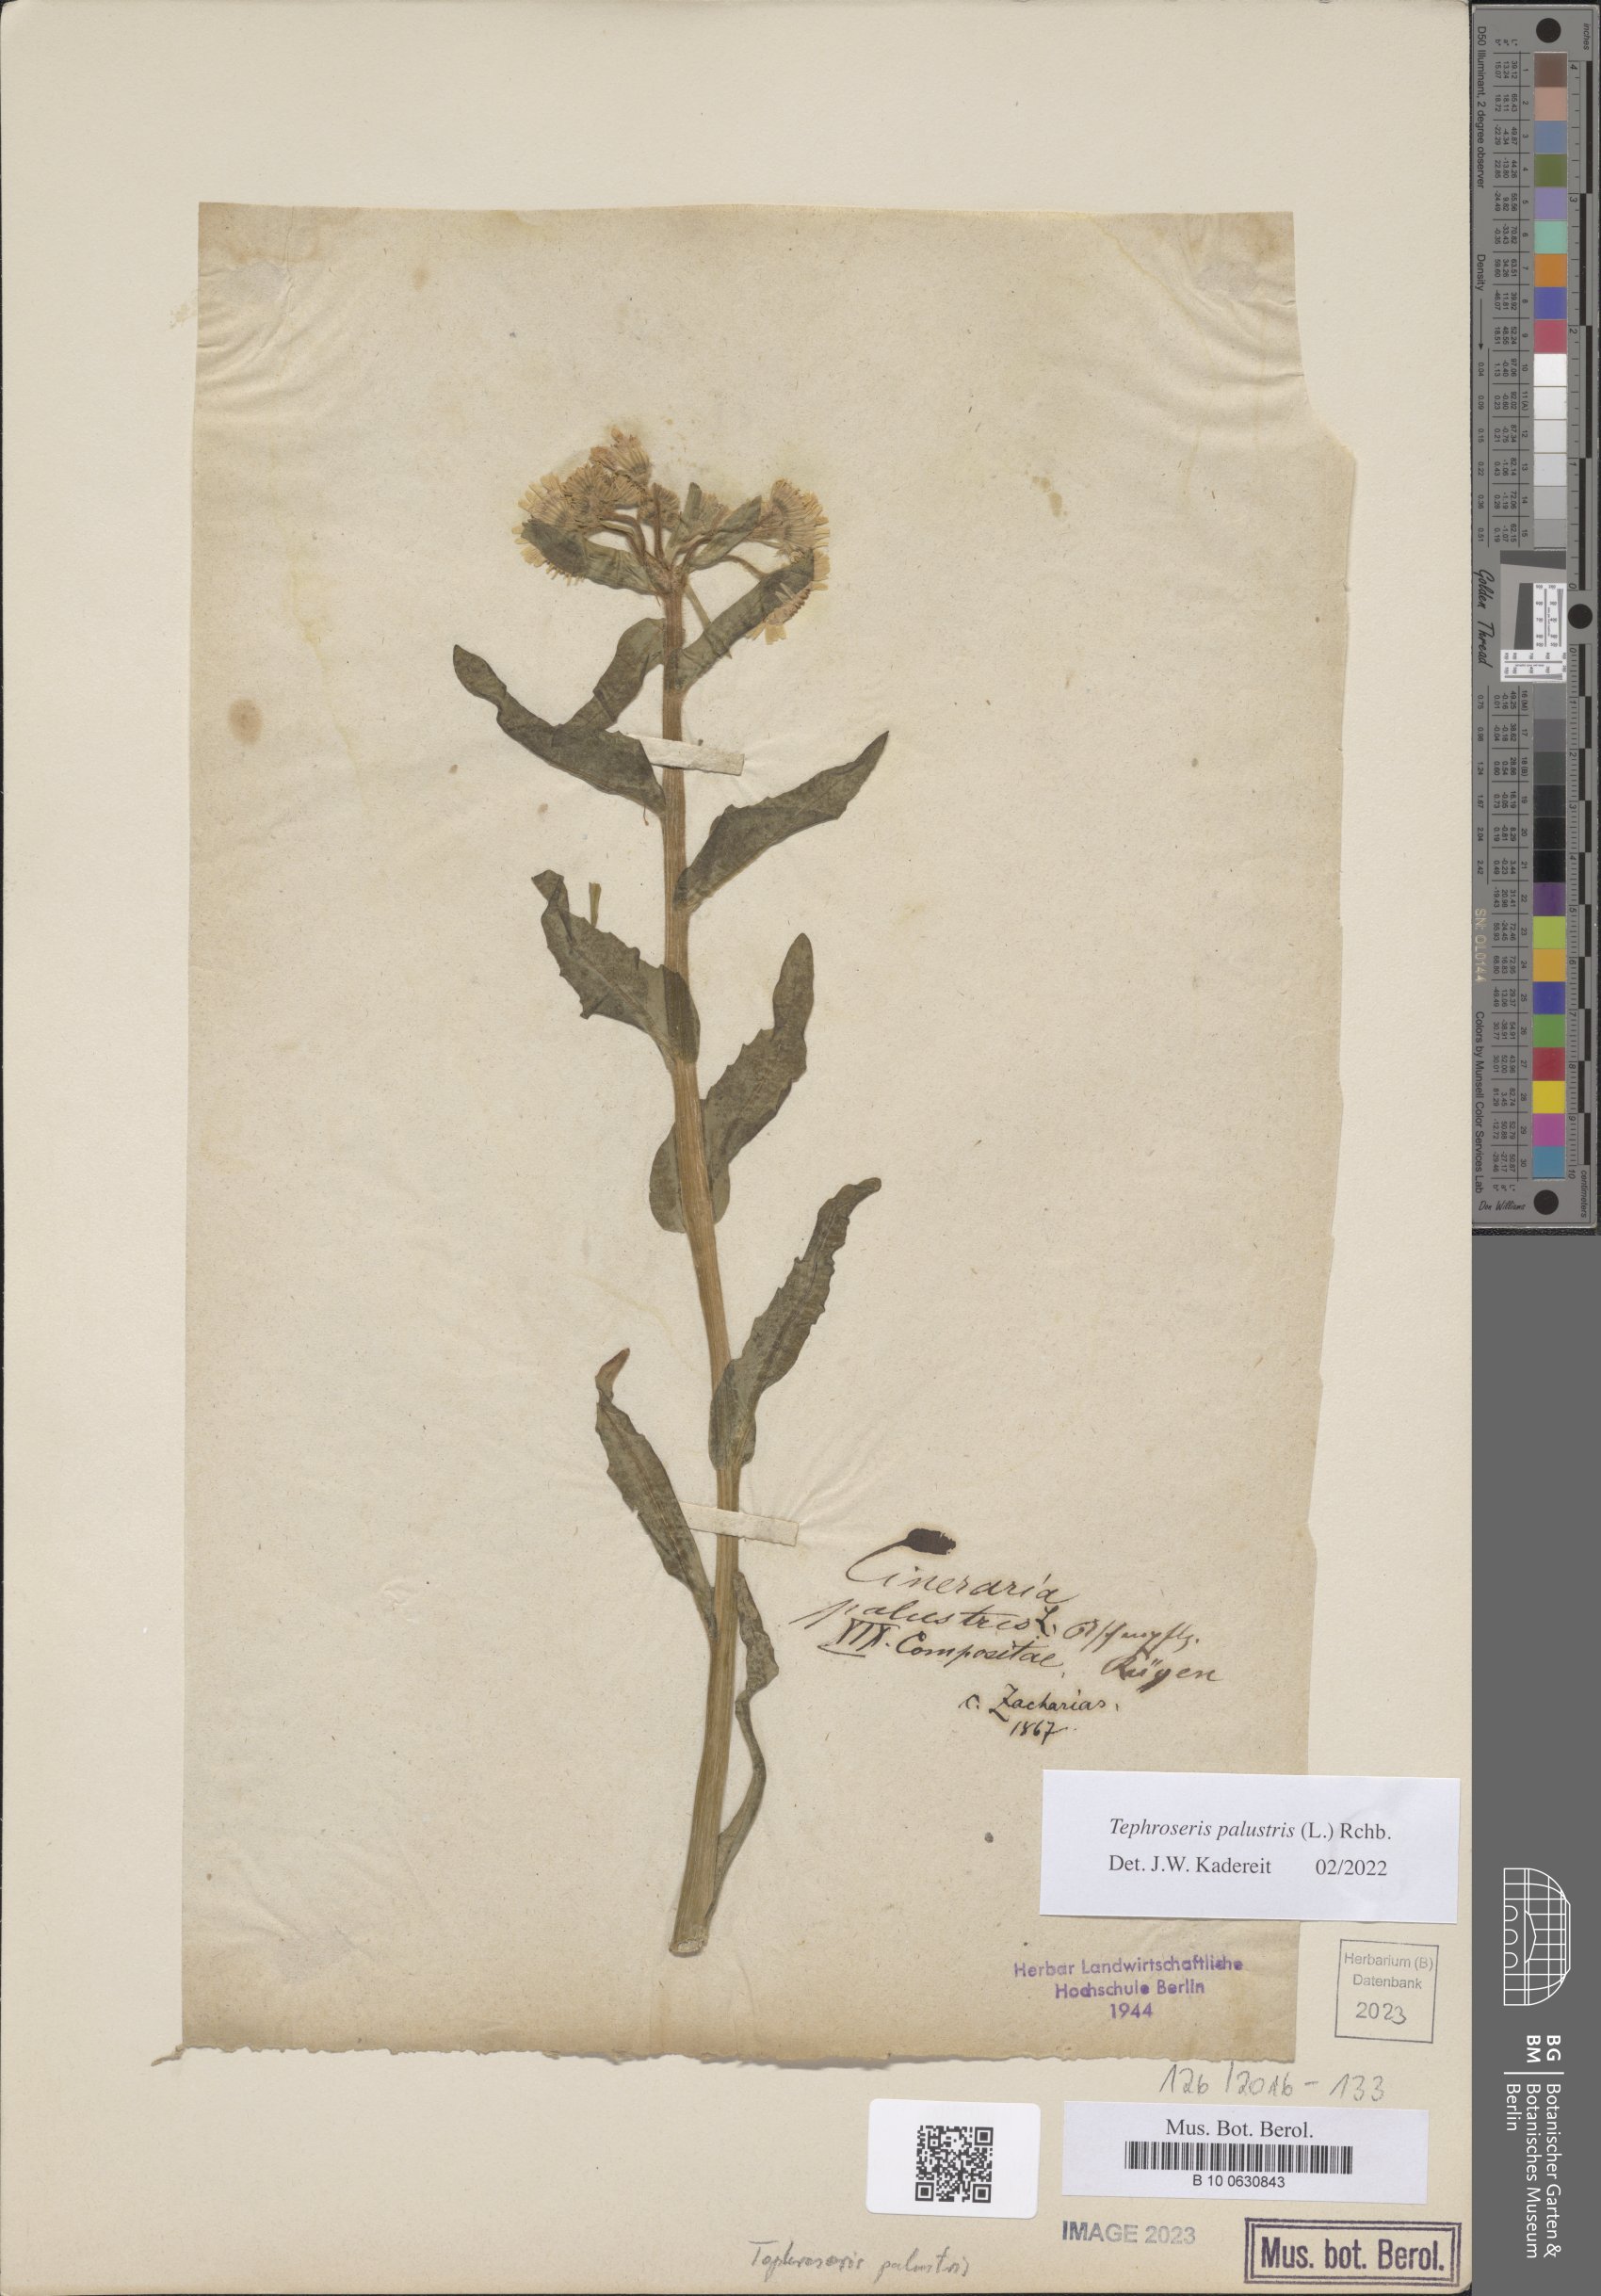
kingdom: Plantae
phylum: Tracheophyta
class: Magnoliopsida
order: Asterales
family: Asteraceae
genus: Tephroseris
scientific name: Tephroseris palustris
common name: Marsh fleawort
